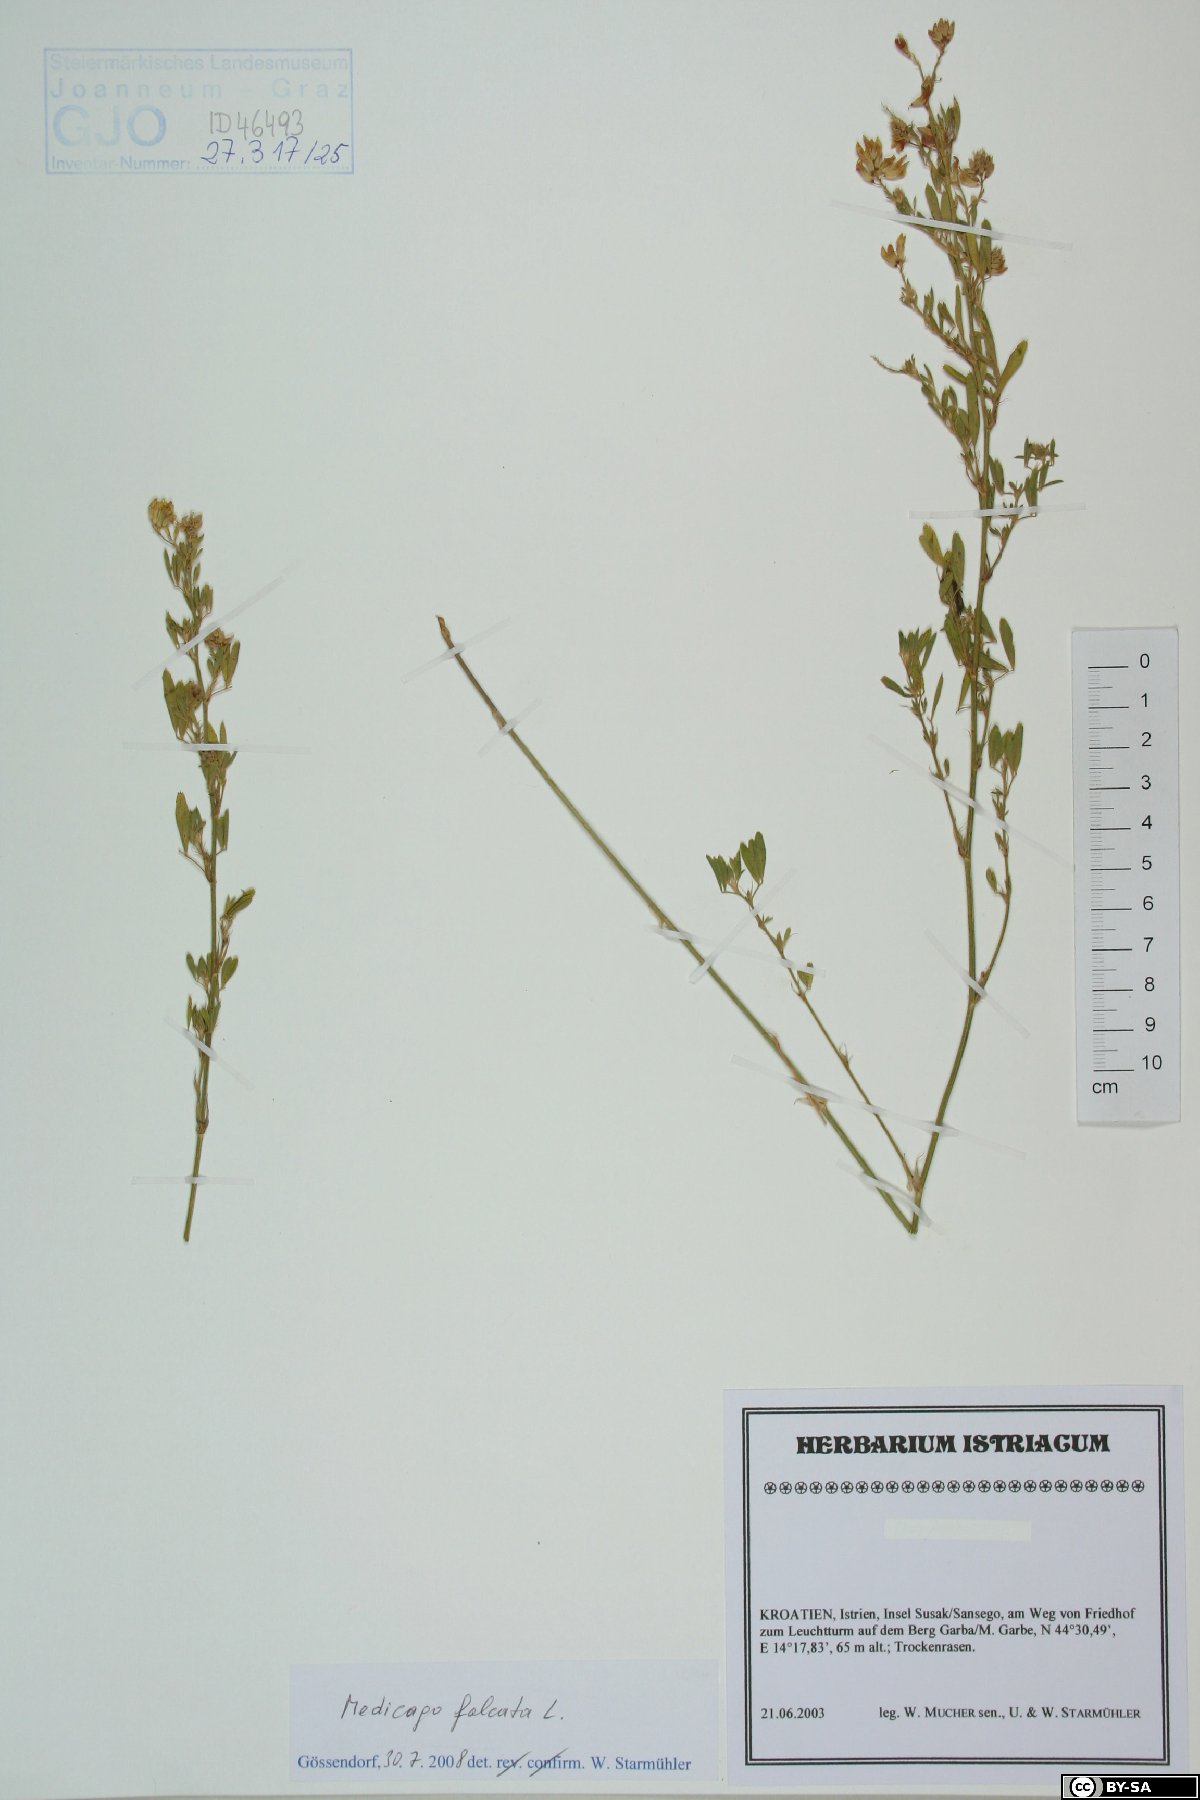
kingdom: Plantae
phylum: Tracheophyta
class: Magnoliopsida
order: Fabales
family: Fabaceae
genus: Medicago
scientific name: Medicago falcata
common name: Sickle medick
